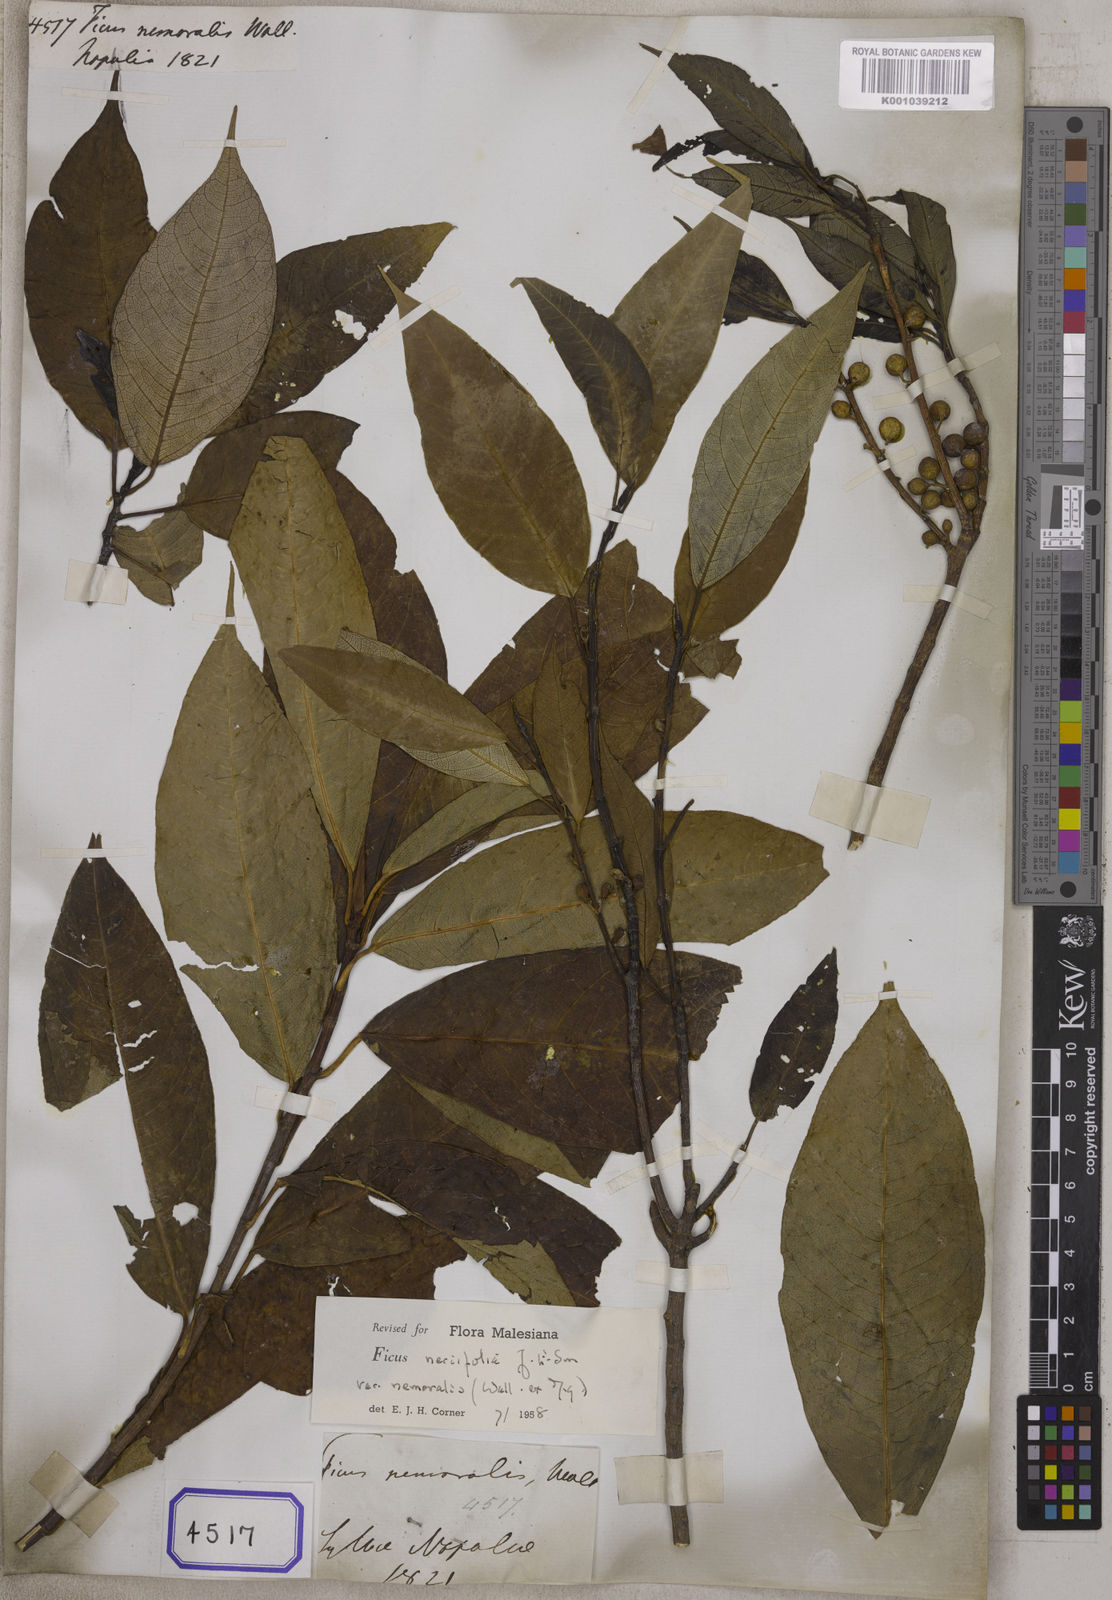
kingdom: Plantae
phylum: Tracheophyta
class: Magnoliopsida
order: Rosales
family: Moraceae
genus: Ficus
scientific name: Ficus
